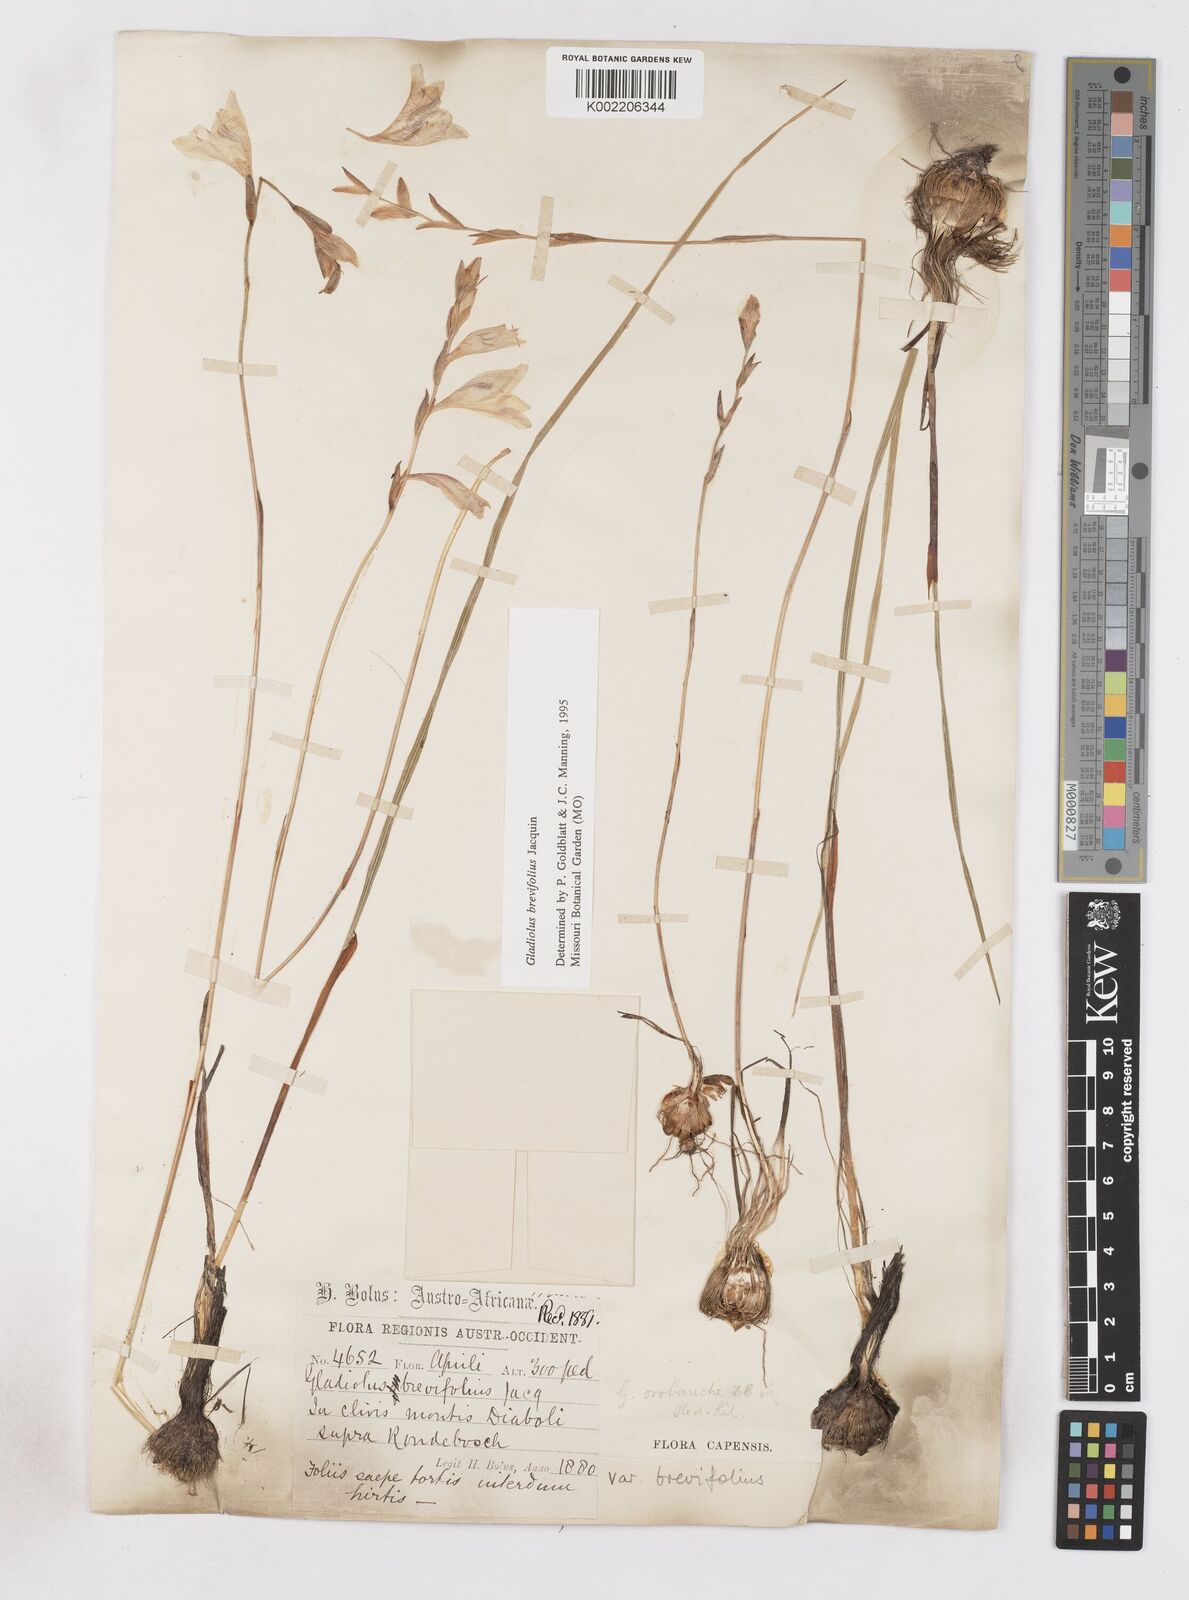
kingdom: Plantae
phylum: Tracheophyta
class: Liliopsida
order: Asparagales
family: Iridaceae
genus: Gladiolus
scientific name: Gladiolus brevifolius
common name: March pypie
